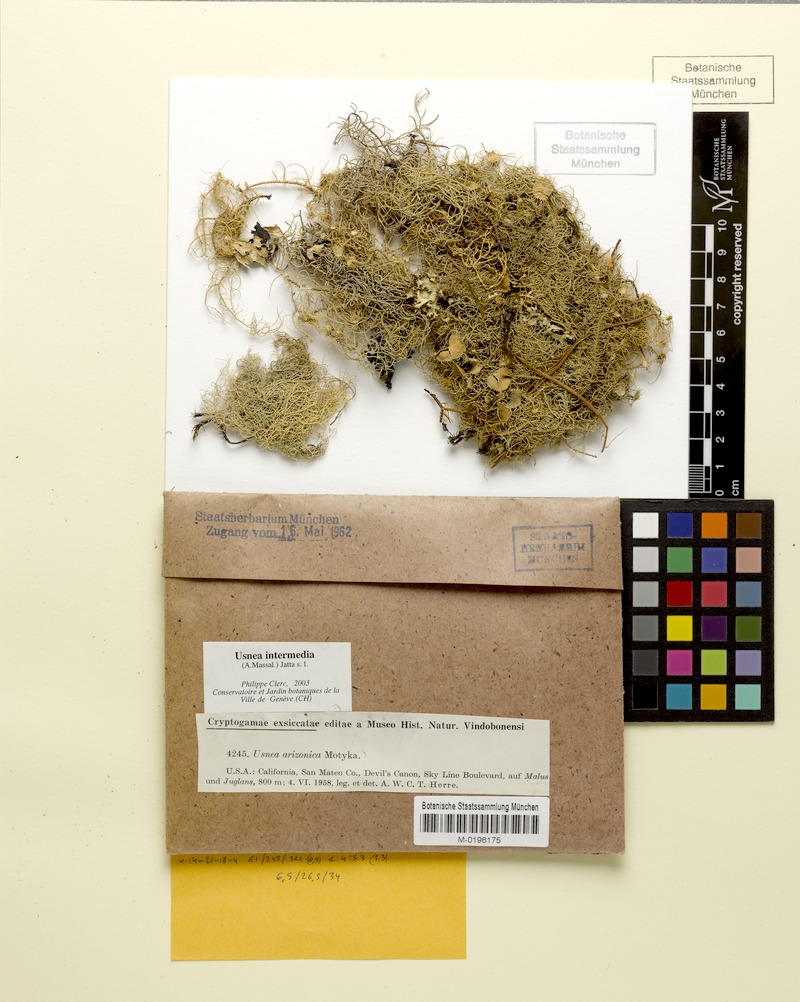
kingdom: Fungi
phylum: Ascomycota
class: Lecanoromycetes
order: Lecanorales
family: Parmeliaceae
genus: Usnea
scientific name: Usnea intermedia
